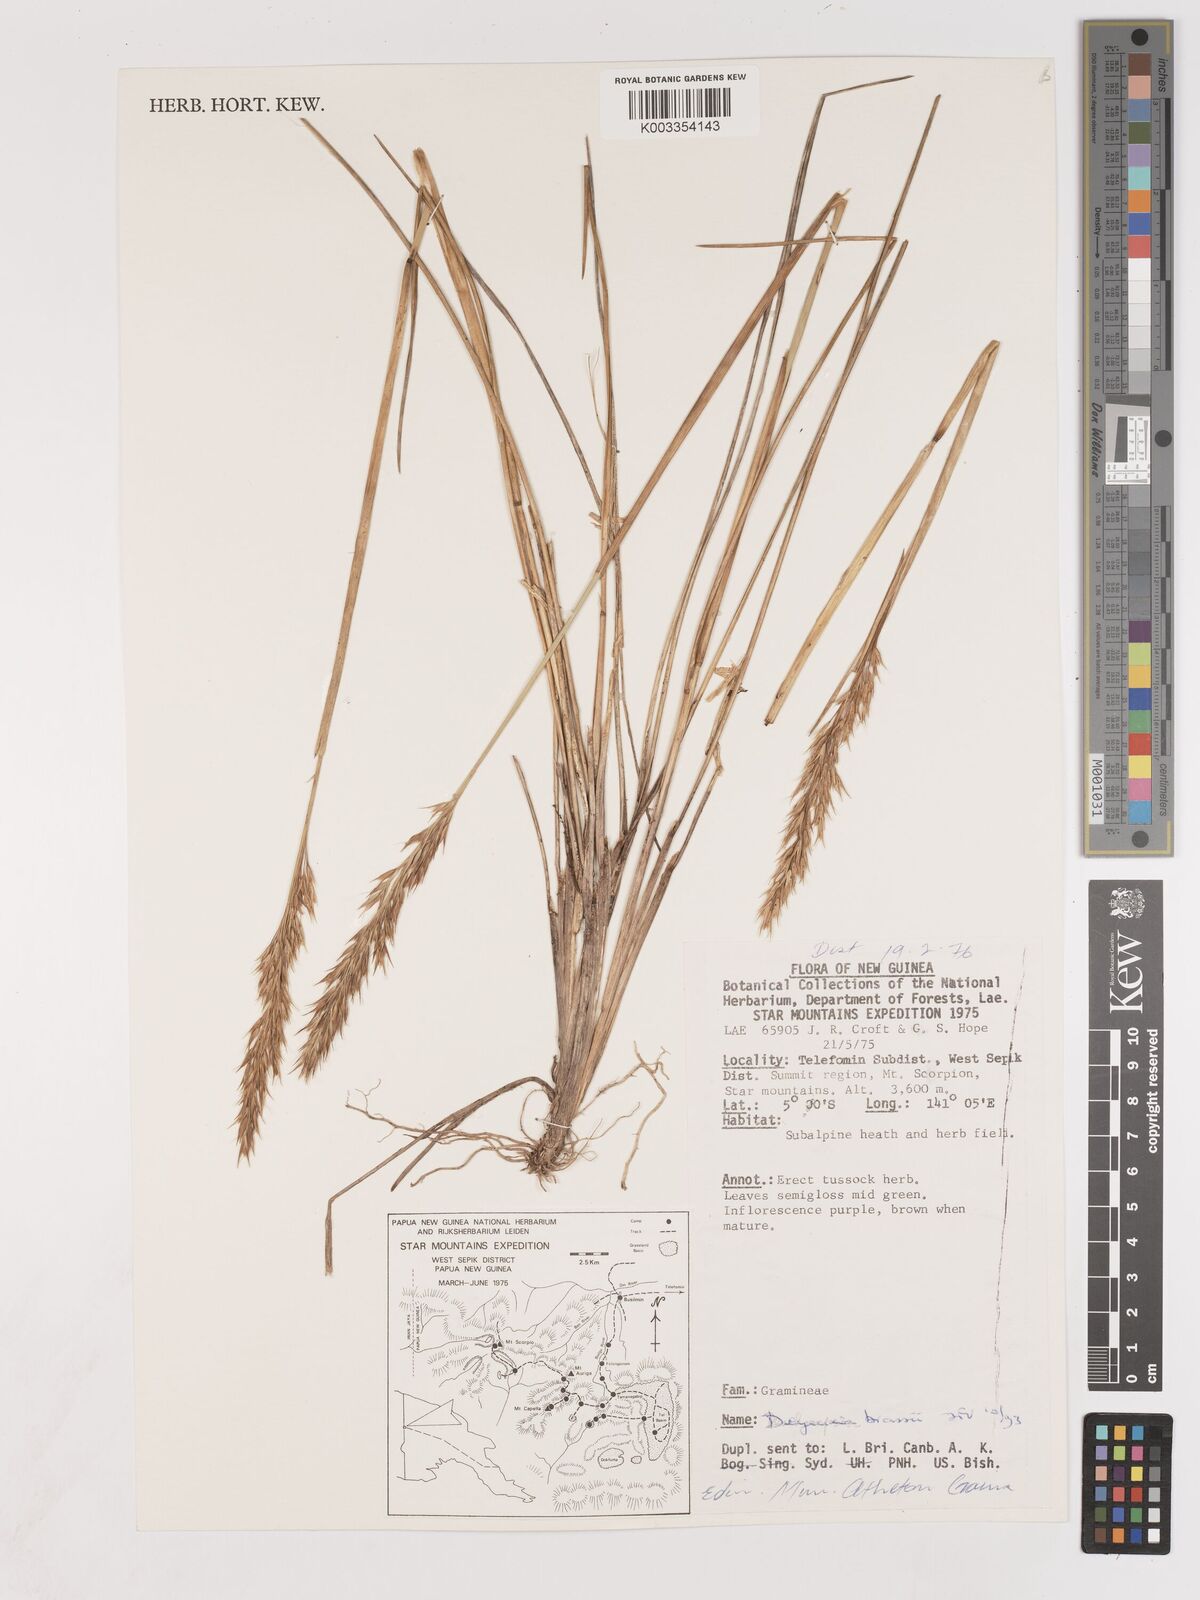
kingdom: Plantae
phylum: Tracheophyta
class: Liliopsida
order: Poales
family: Poaceae
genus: Calamagrostis
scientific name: Calamagrostis brassii
